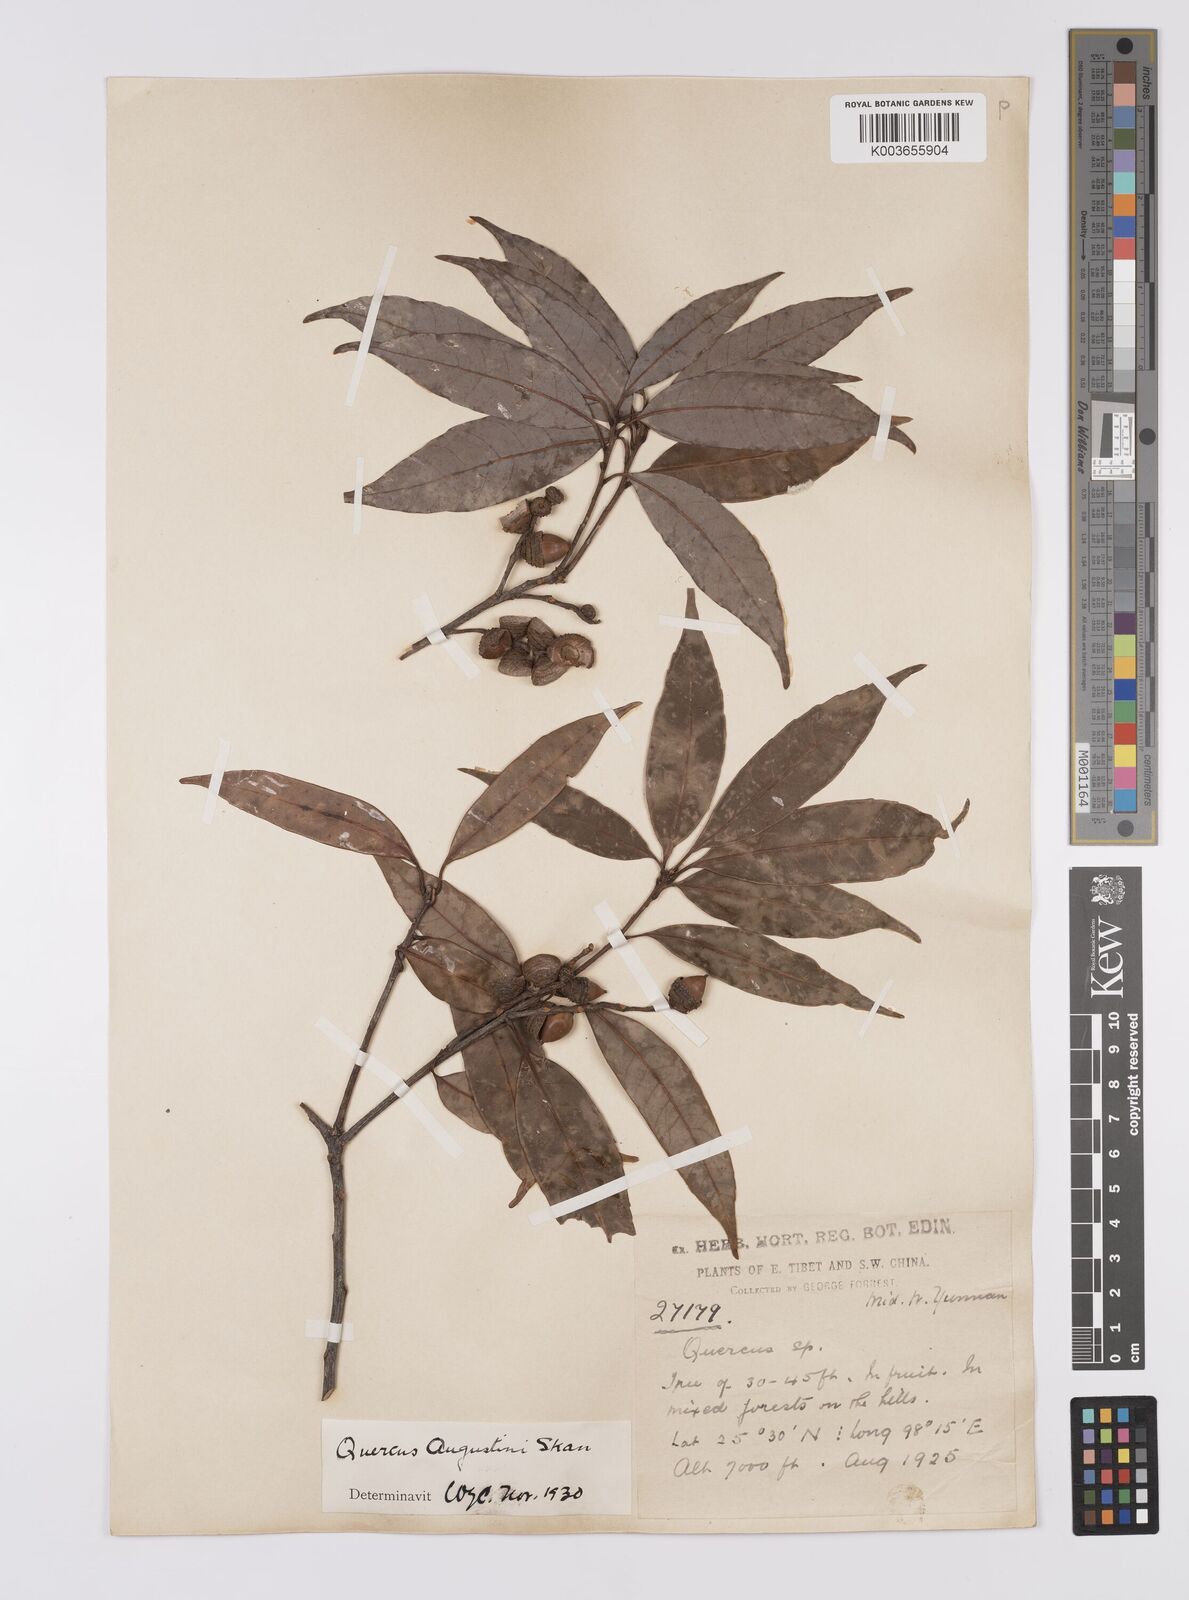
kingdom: Plantae
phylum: Tracheophyta
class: Magnoliopsida
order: Fagales
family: Fagaceae
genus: Quercus
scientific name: Quercus augustini
